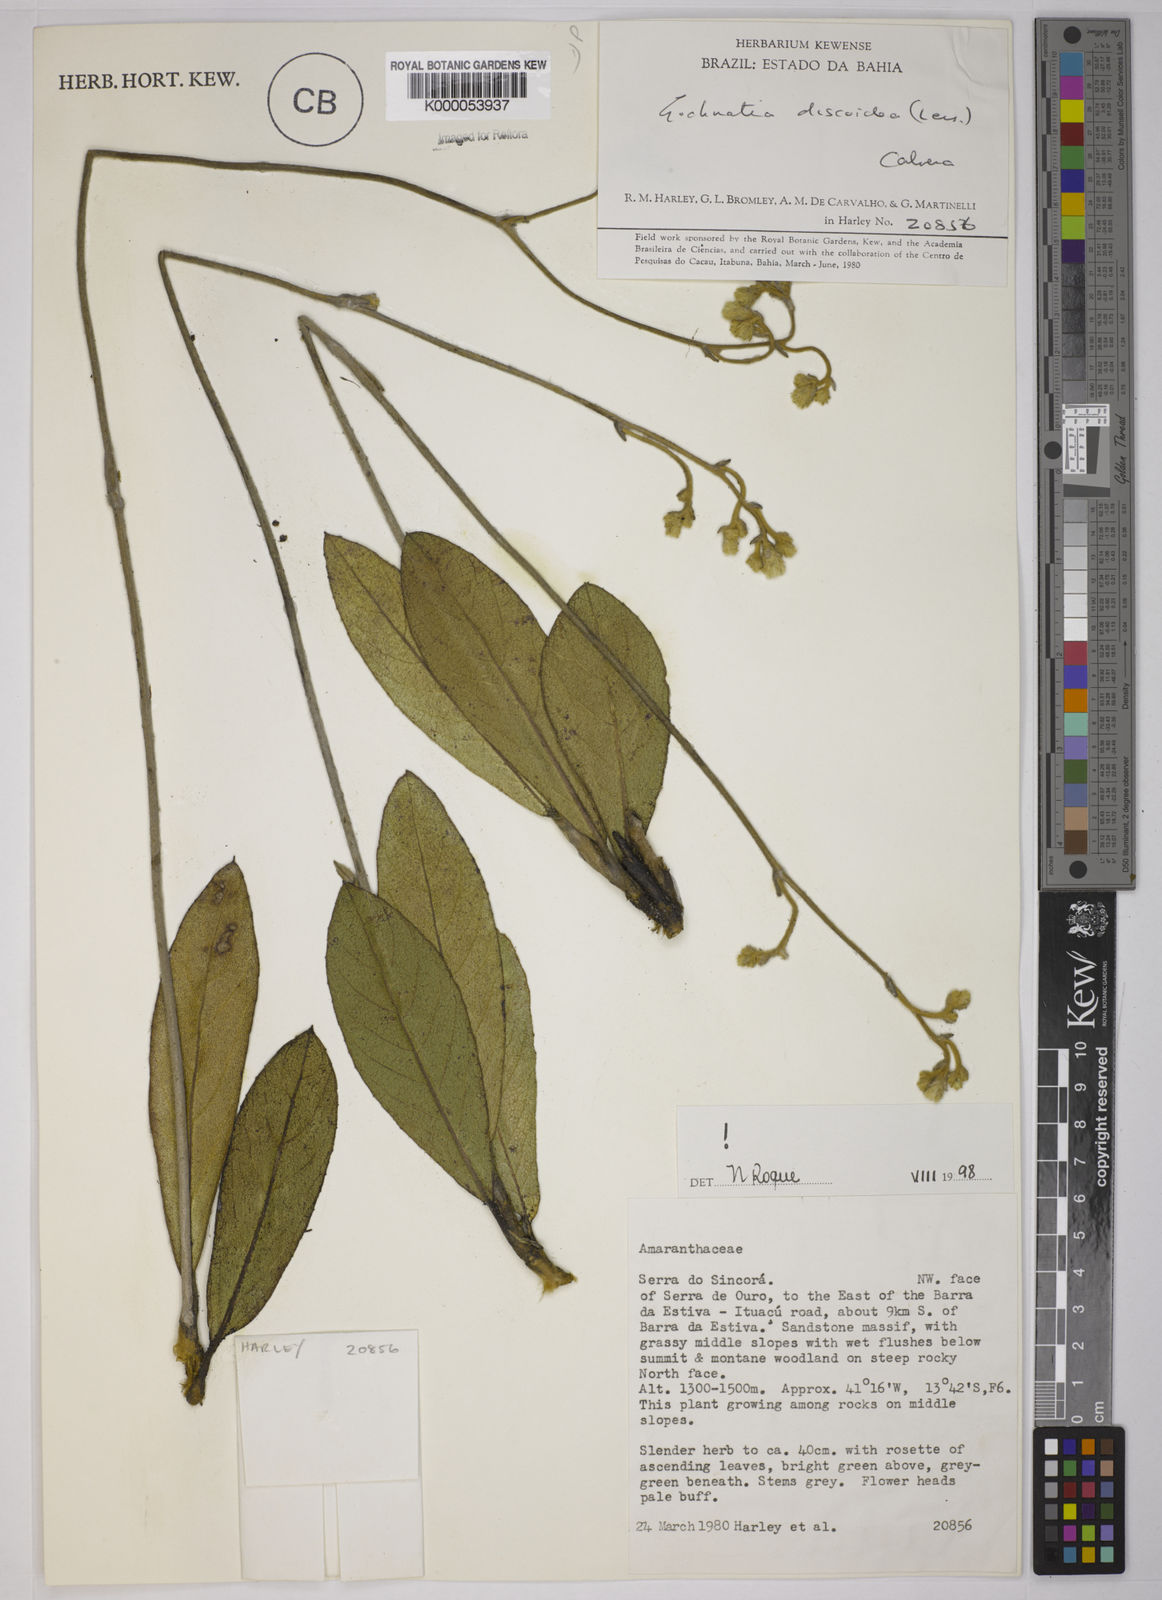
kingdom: Plantae
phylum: Tracheophyta
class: Magnoliopsida
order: Asterales
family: Asteraceae
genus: Richterago
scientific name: Richterago discoidea
